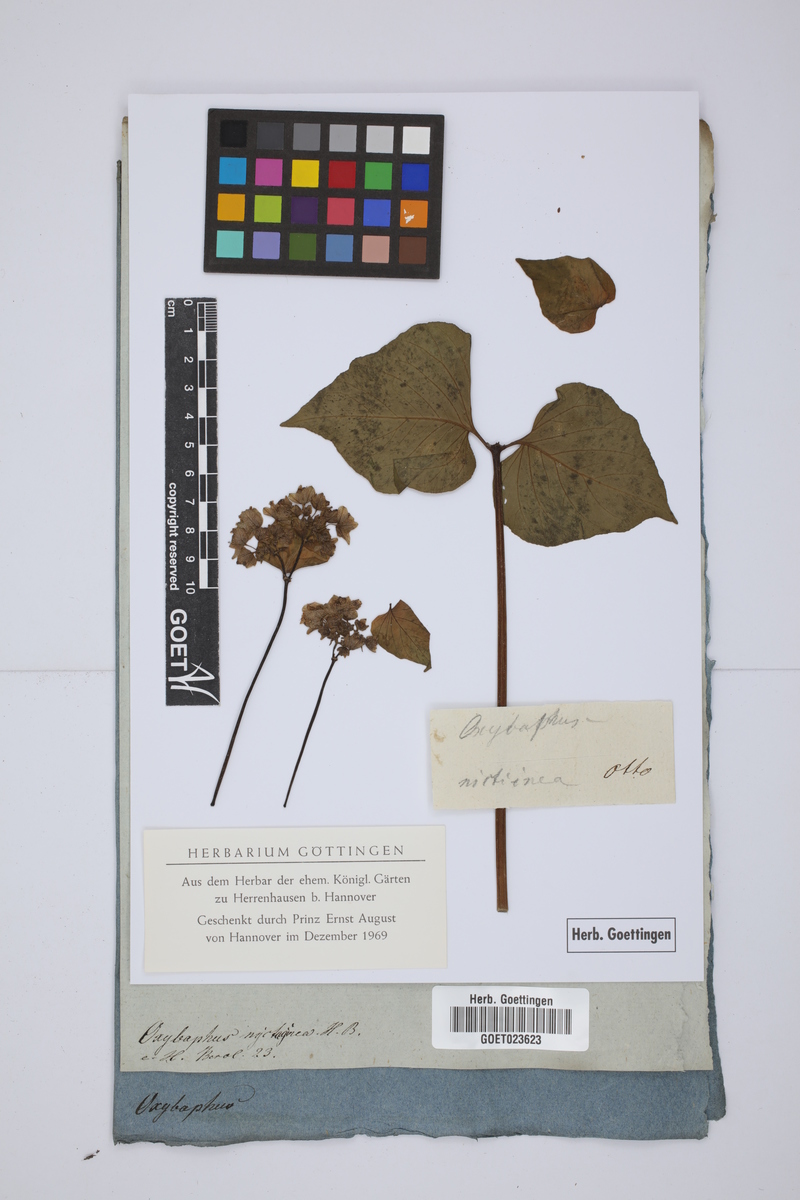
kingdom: Plantae
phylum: Tracheophyta
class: Magnoliopsida
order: Caryophyllales
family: Nyctaginaceae
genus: Mirabilis
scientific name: Mirabilis nyctaginea
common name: Umbrella wort
